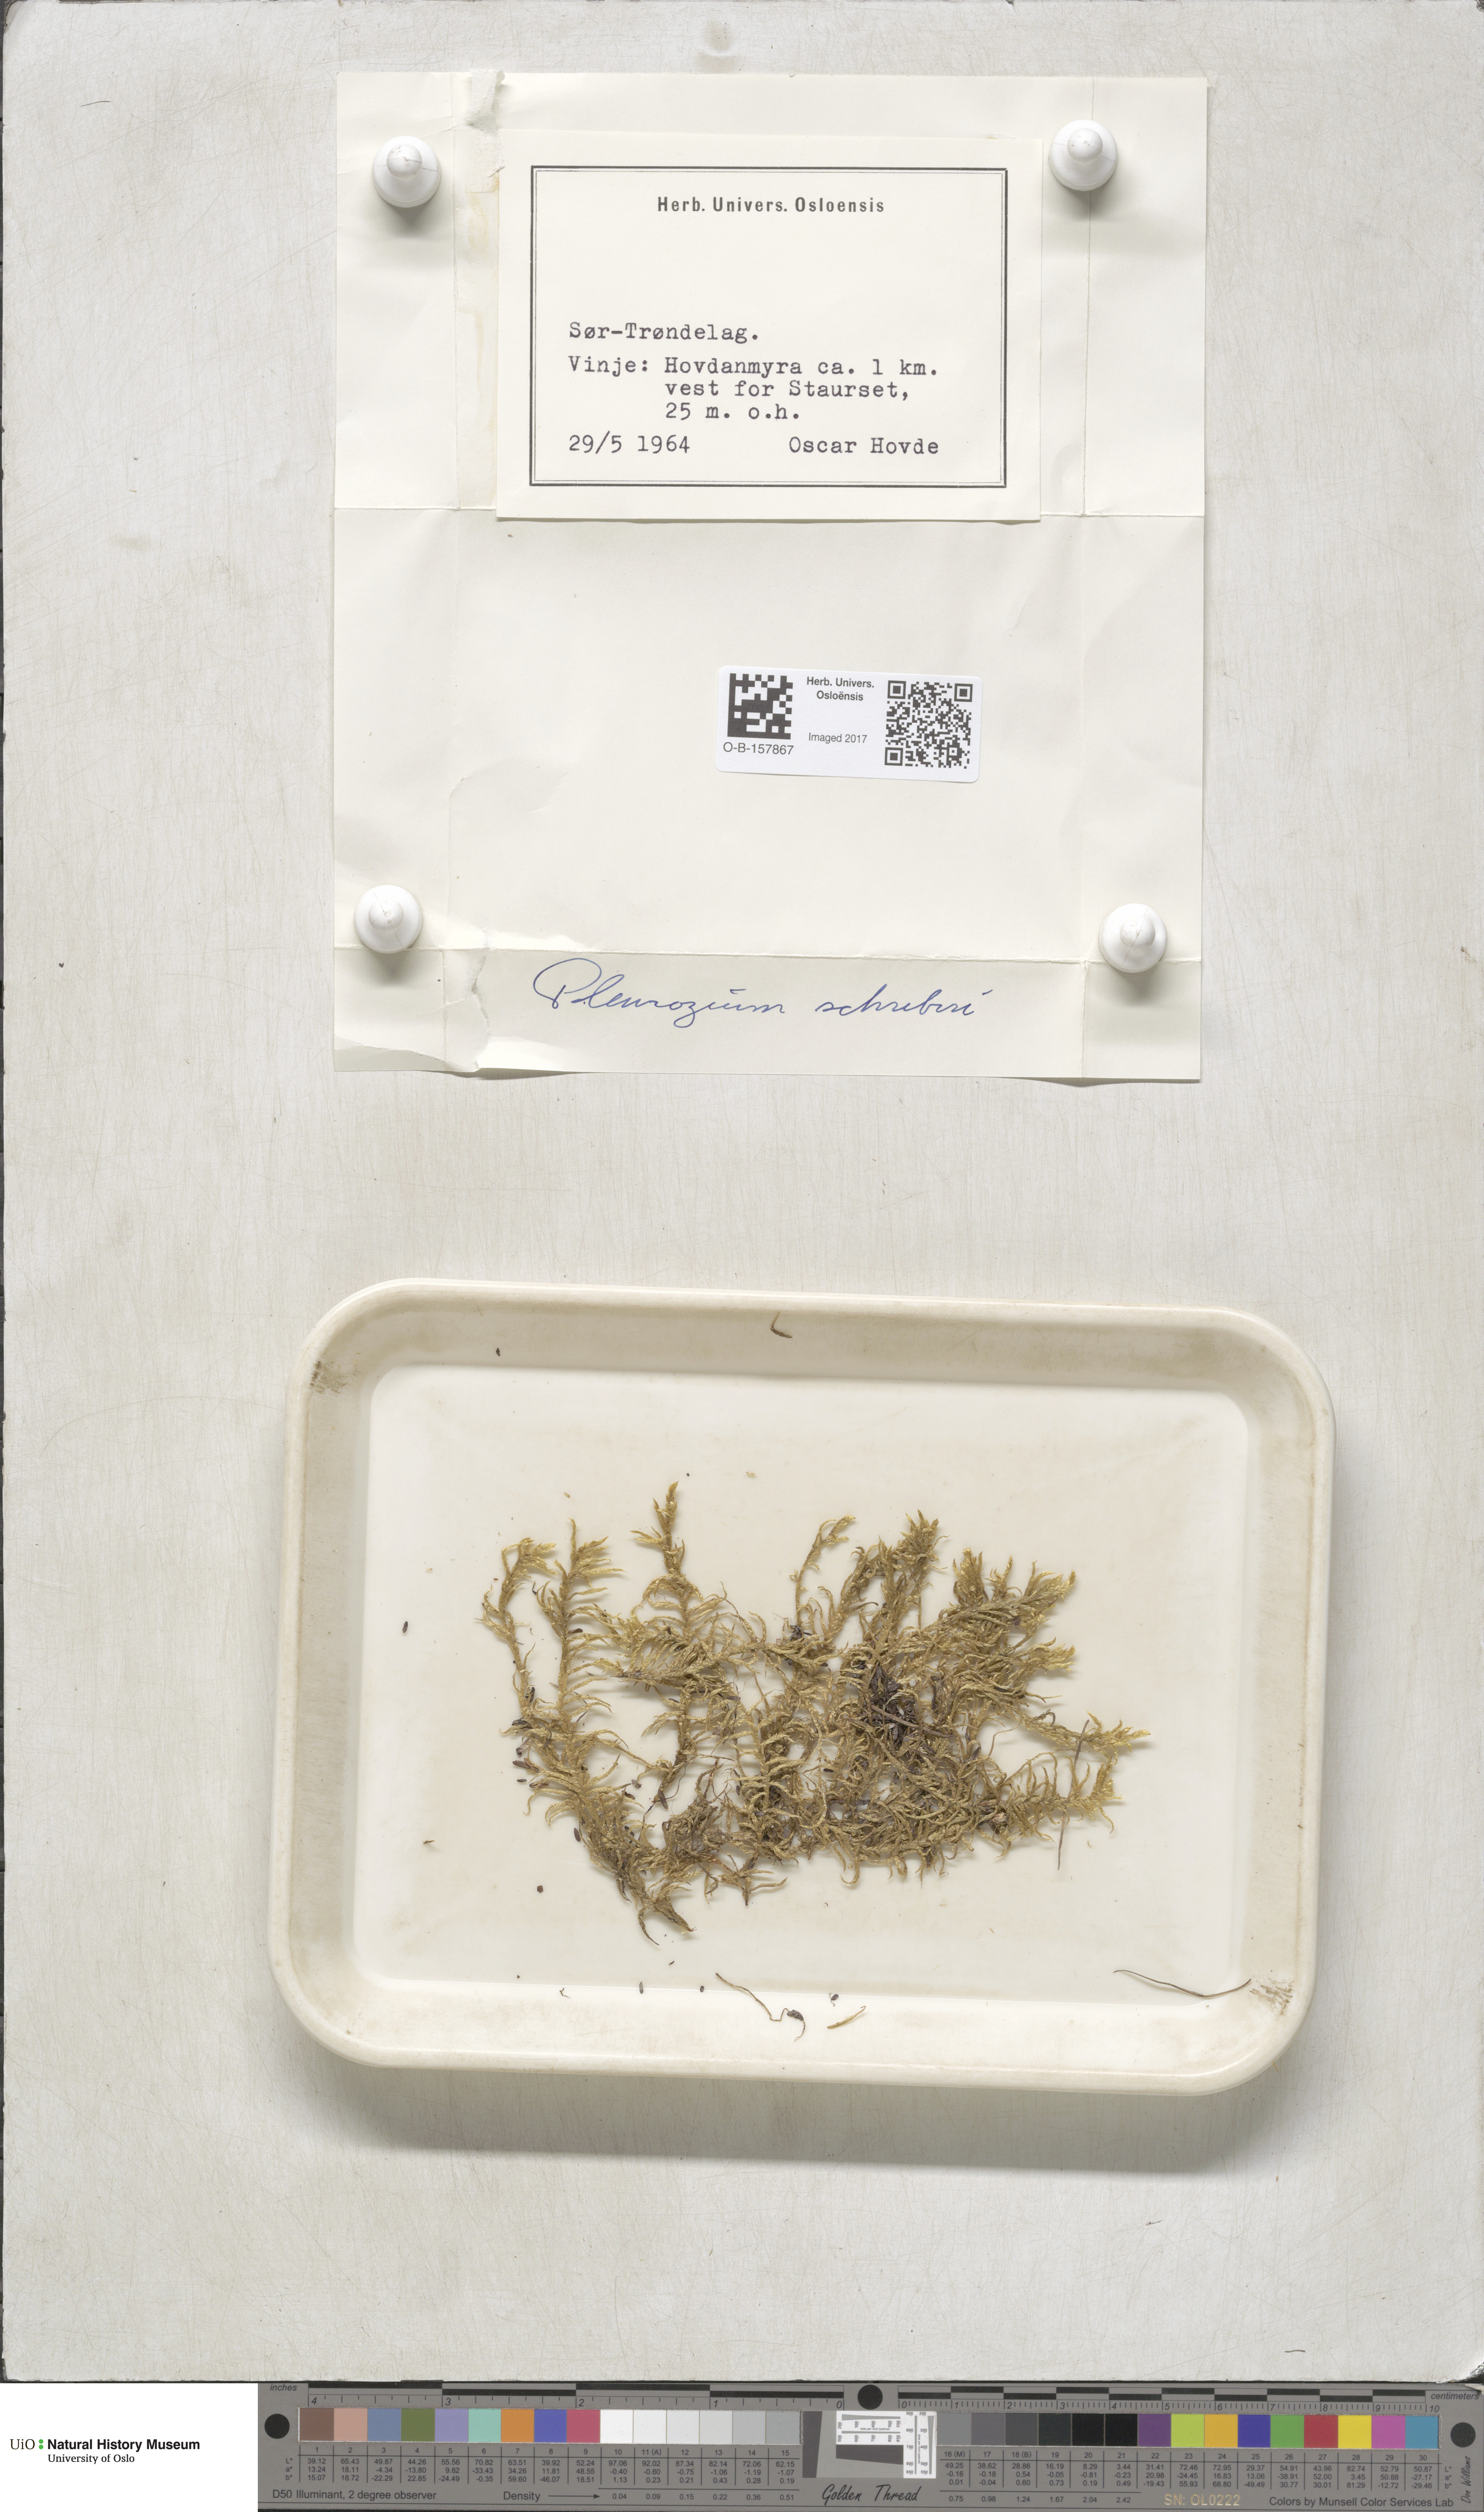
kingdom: Plantae
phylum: Bryophyta
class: Bryopsida
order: Hypnales
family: Hylocomiaceae
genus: Pleurozium
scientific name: Pleurozium schreberi
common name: Red-stemmed feather moss
